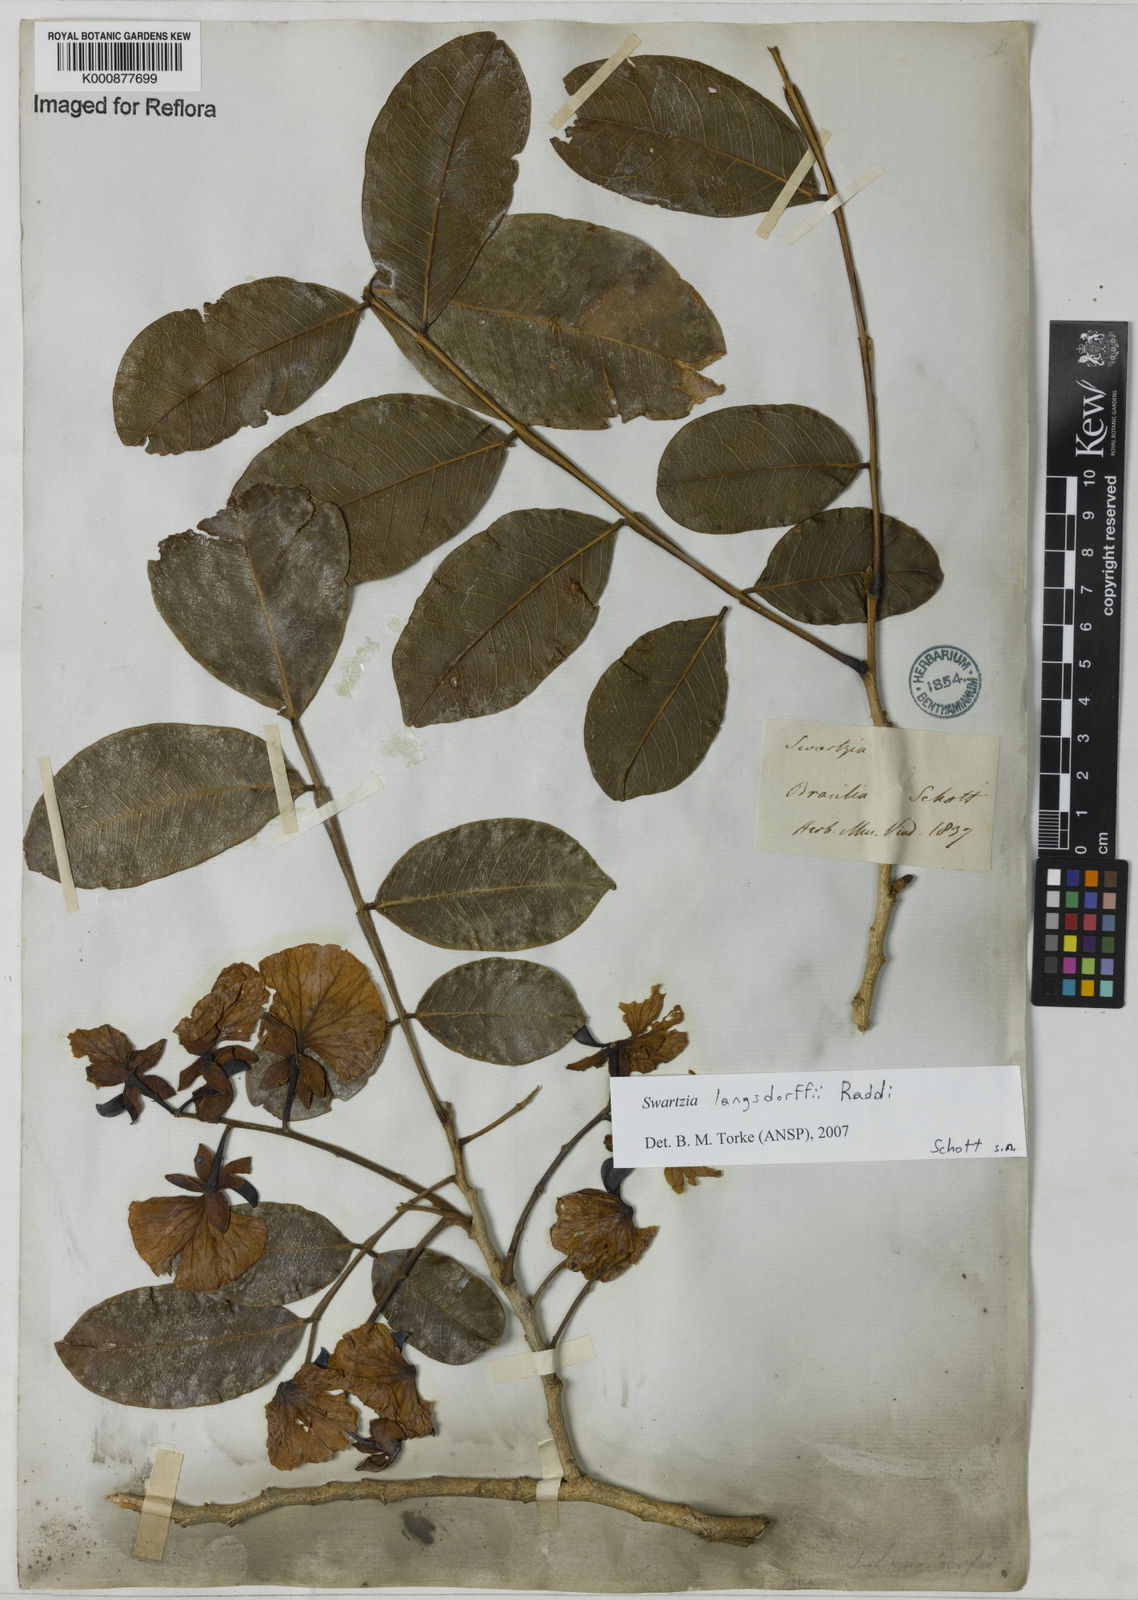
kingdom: Plantae
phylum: Tracheophyta
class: Magnoliopsida
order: Fabales
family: Fabaceae
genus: Swartzia
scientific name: Swartzia langsdorffii
